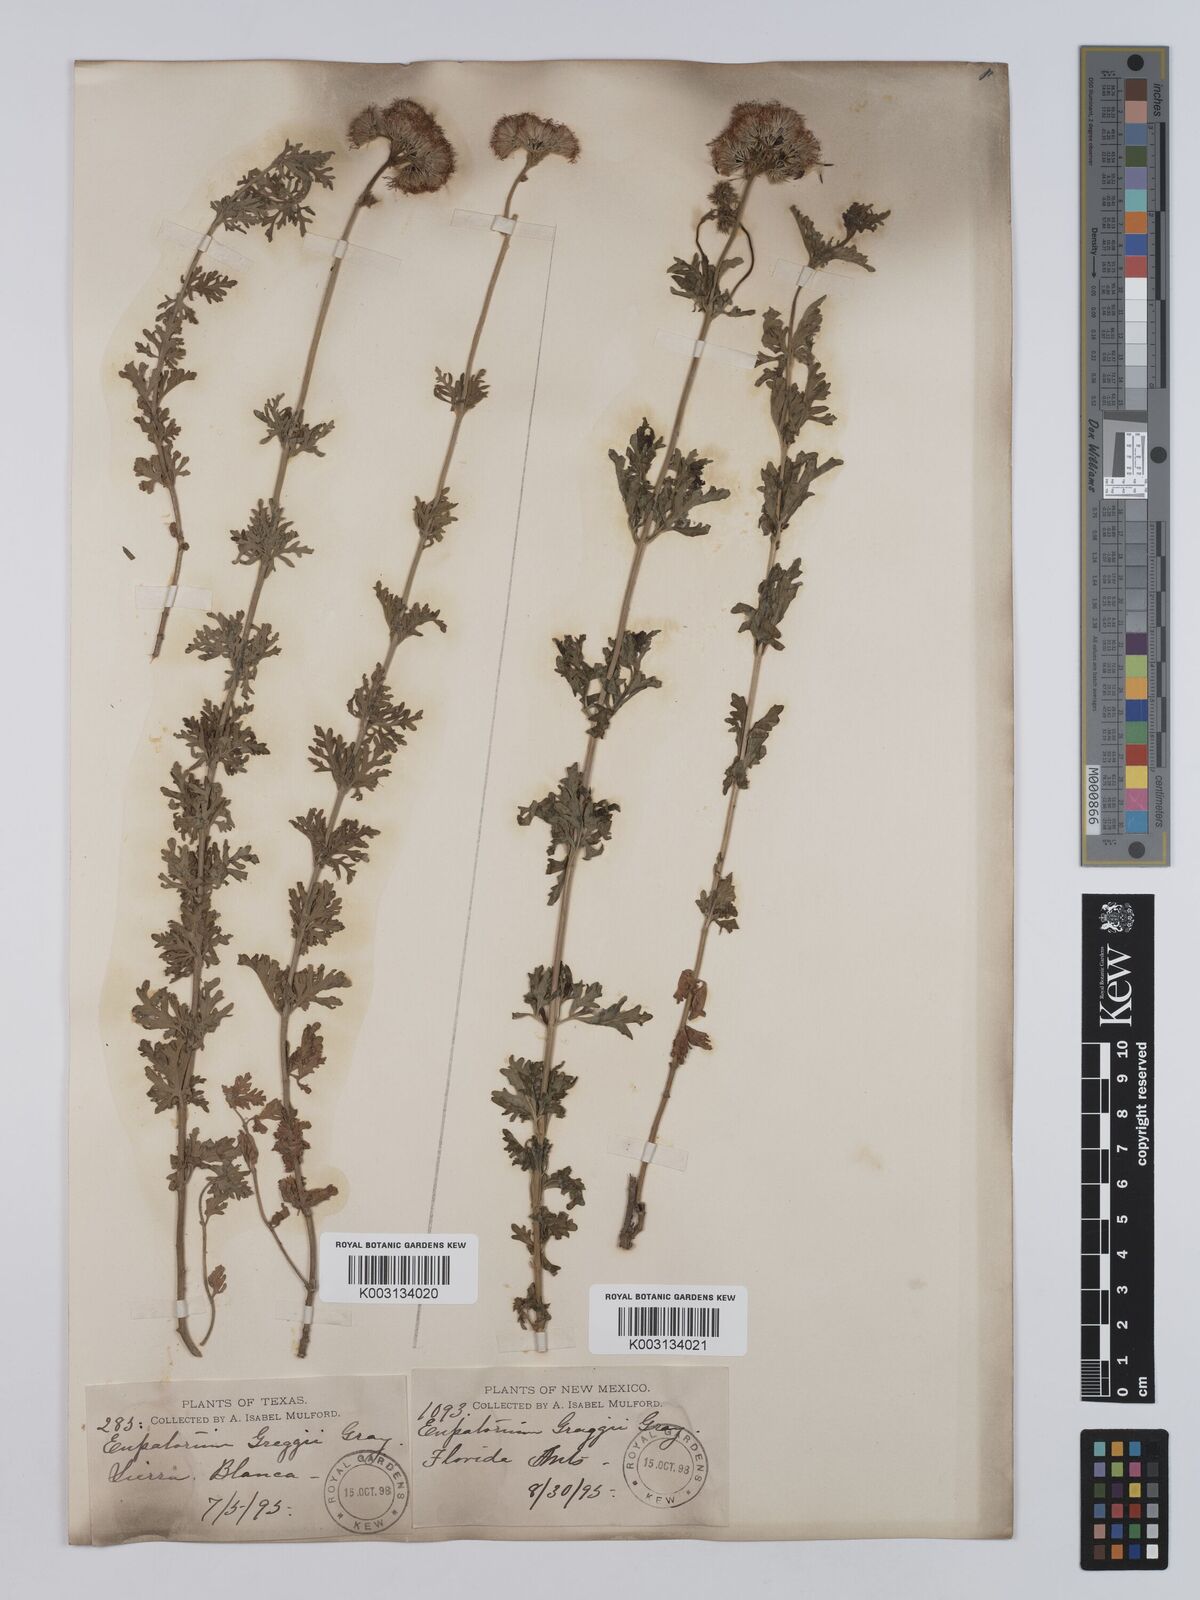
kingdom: Plantae
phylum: Tracheophyta
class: Magnoliopsida
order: Asterales
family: Asteraceae
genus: Conoclinium
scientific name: Conoclinium dissectum
